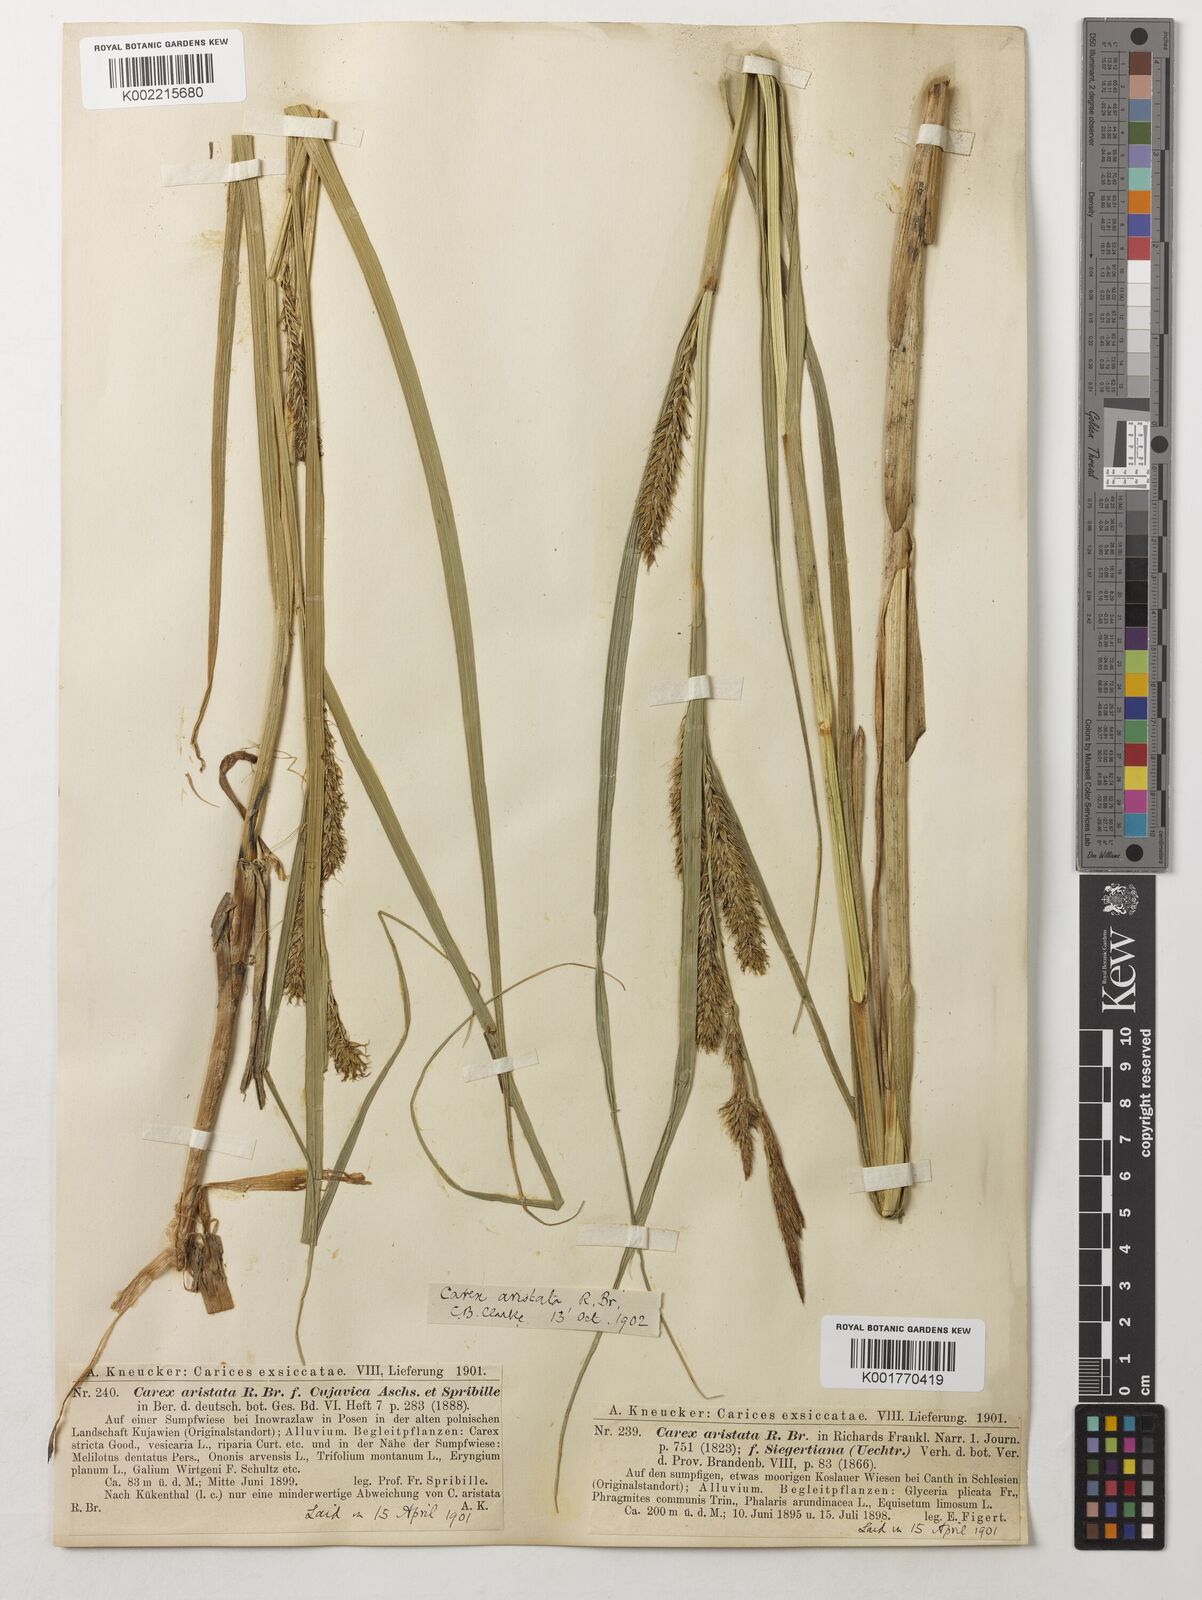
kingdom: Plantae
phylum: Tracheophyta
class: Liliopsida
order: Poales
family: Cyperaceae
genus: Carex
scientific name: Carex davisii
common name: Davis' sedge
